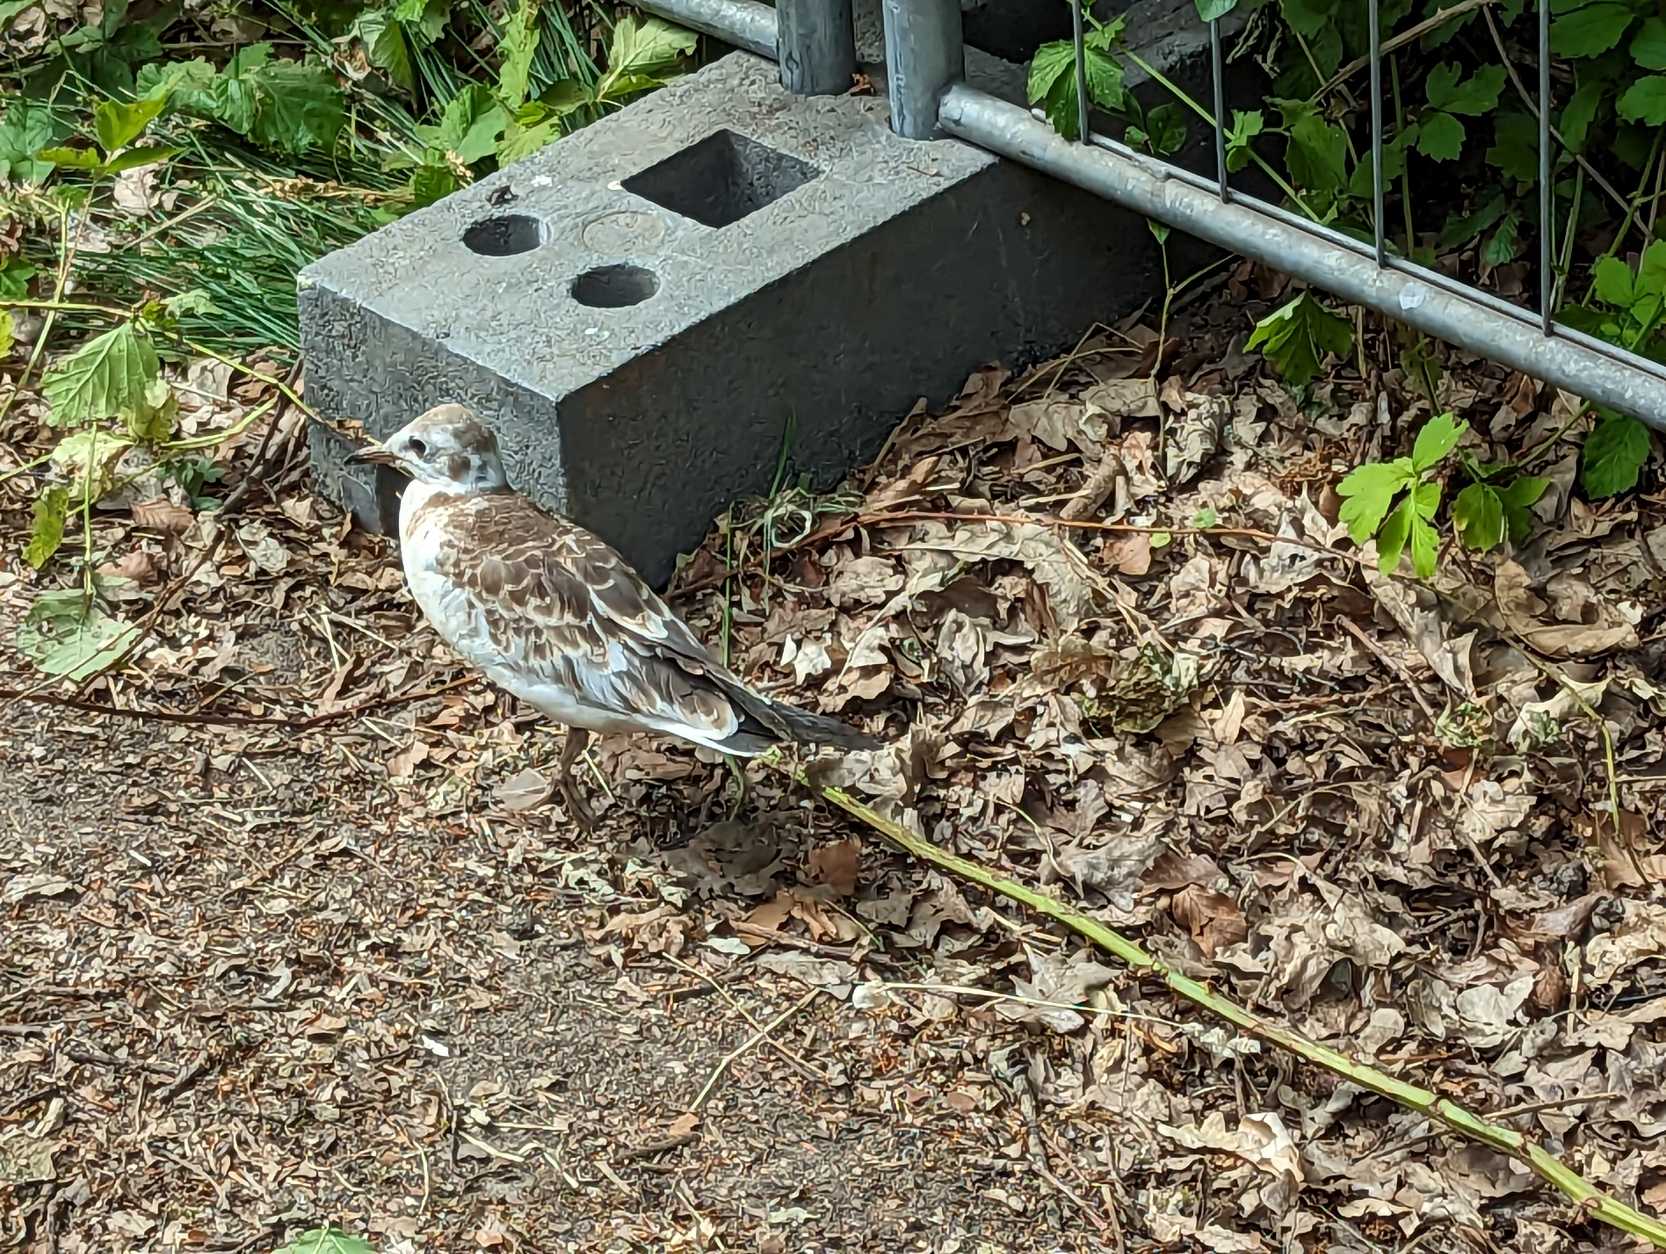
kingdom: Animalia
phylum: Chordata
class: Aves
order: Charadriiformes
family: Laridae
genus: Chroicocephalus
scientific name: Chroicocephalus ridibundus
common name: Hættemåge
